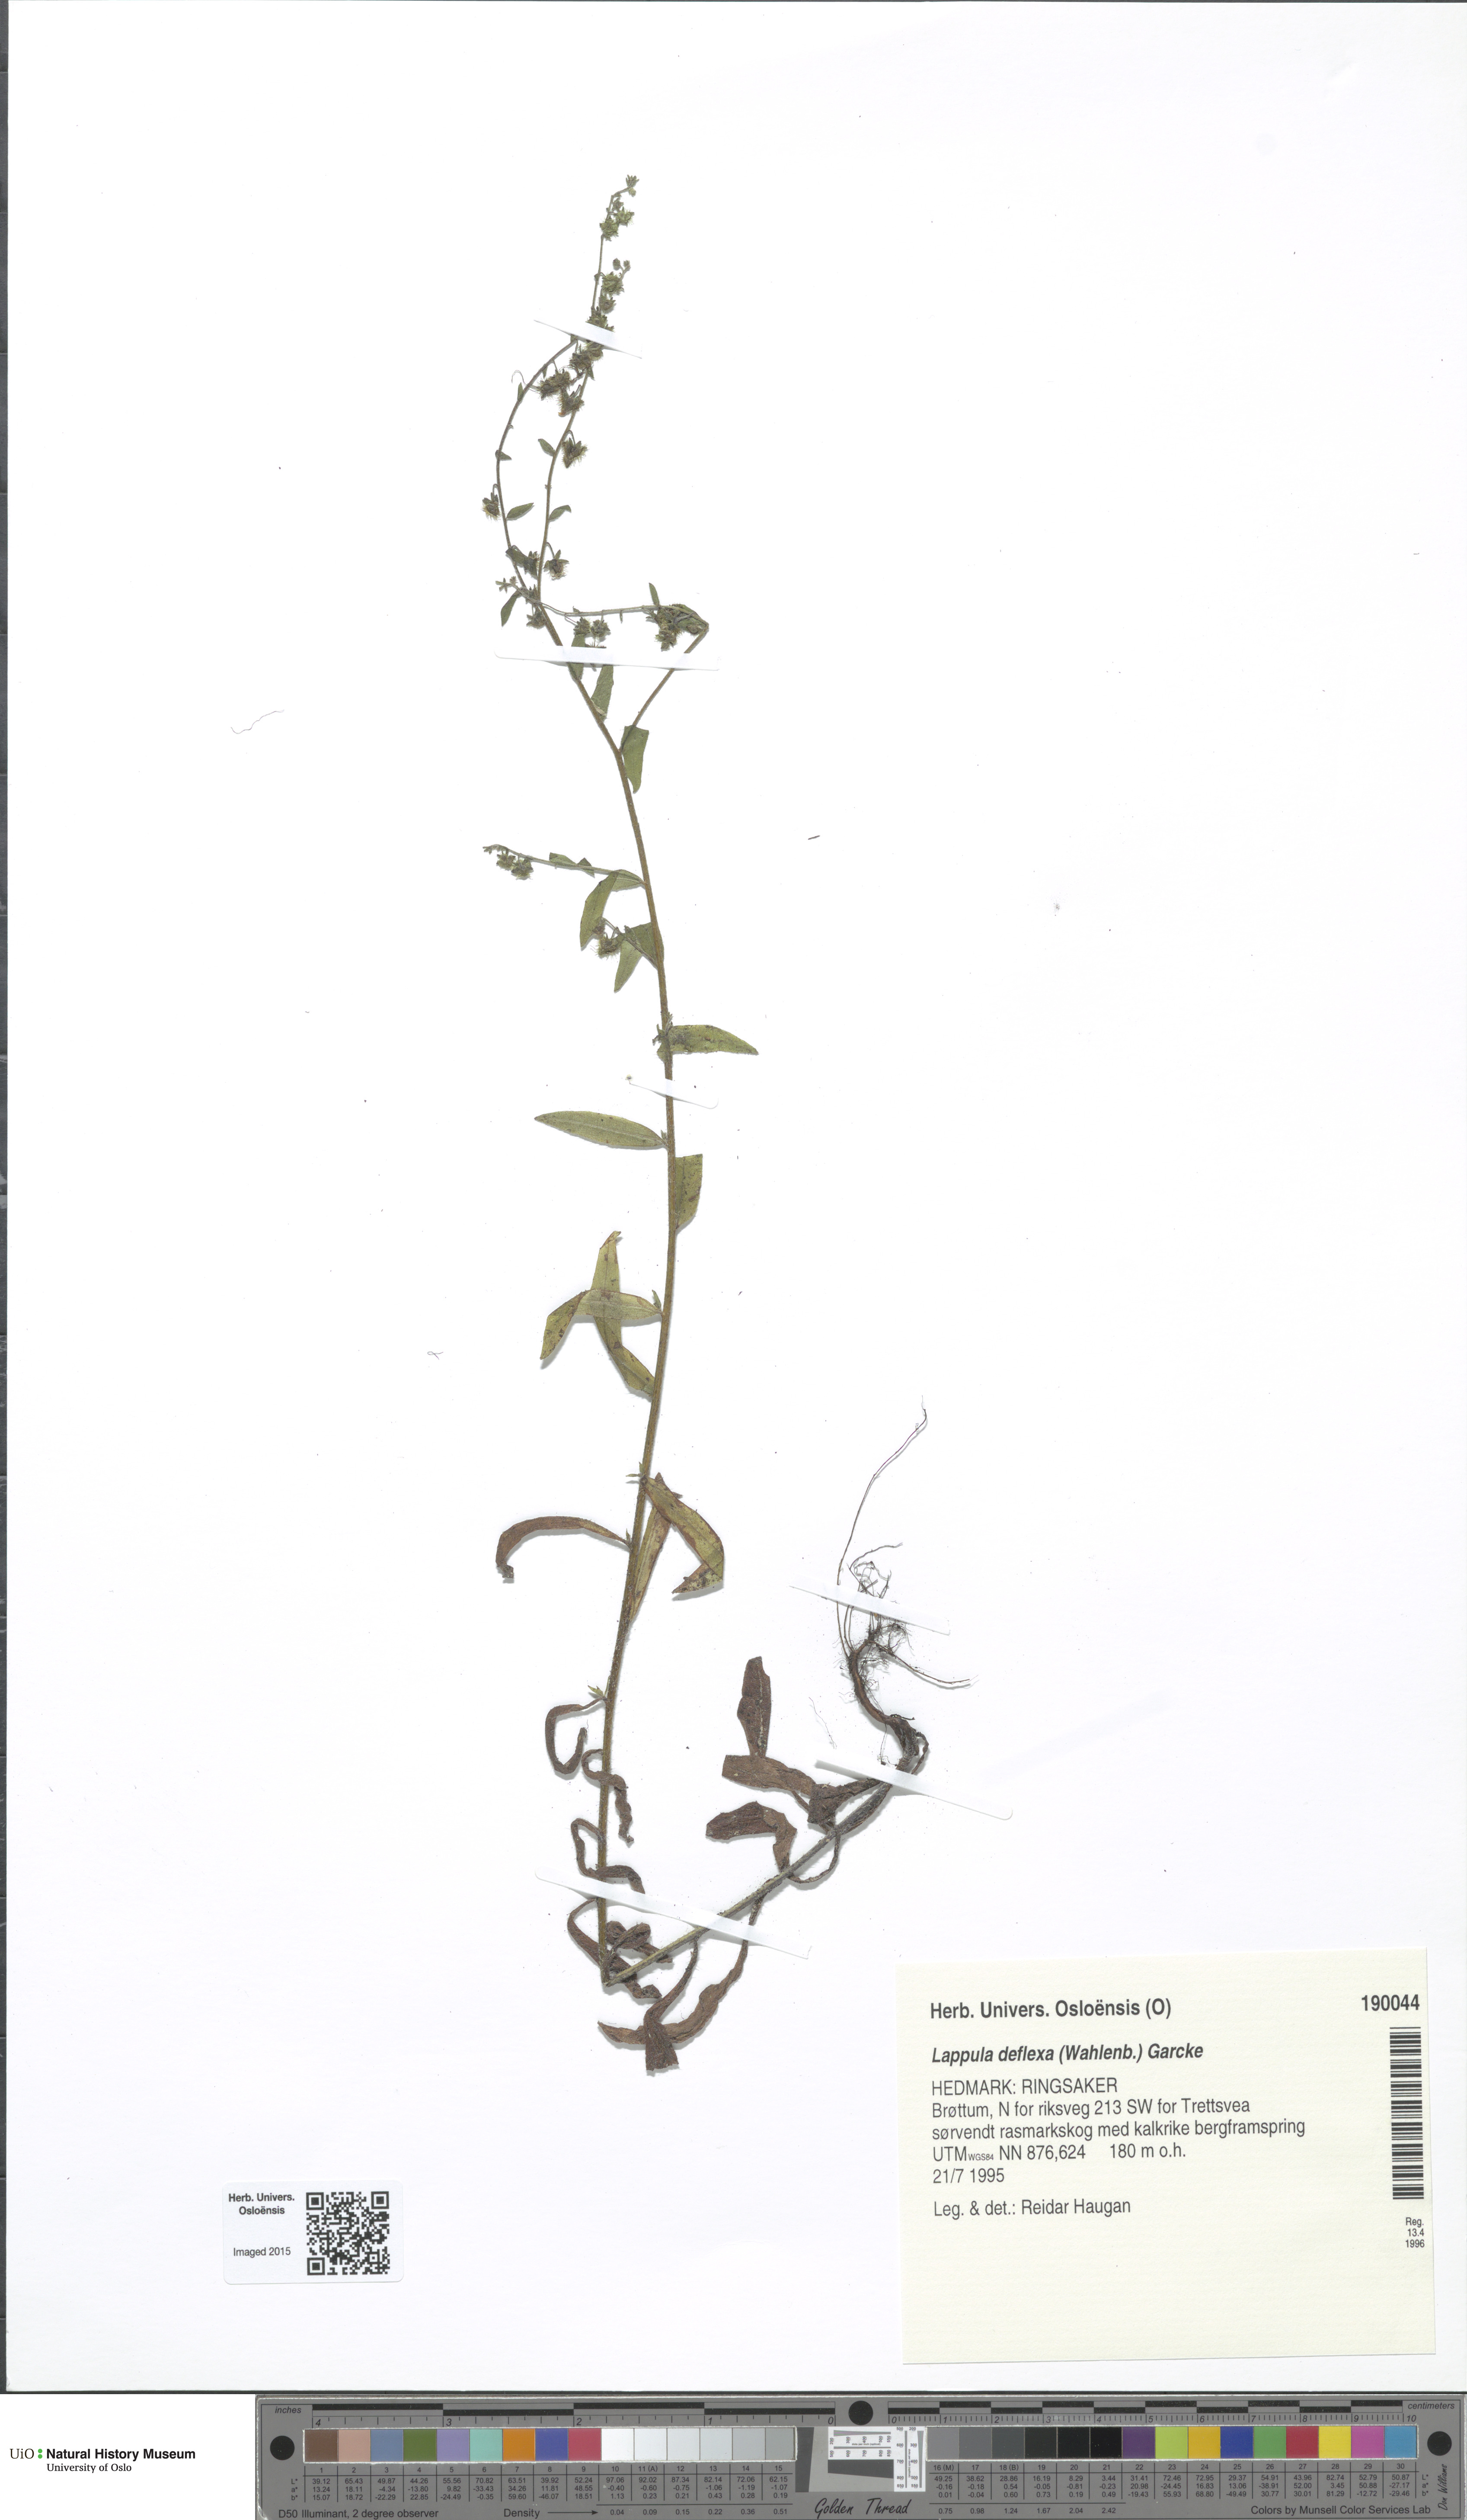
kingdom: Plantae
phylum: Tracheophyta
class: Magnoliopsida
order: Boraginales
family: Boraginaceae
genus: Hackelia
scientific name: Hackelia deflexa
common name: Nodding stickseed
